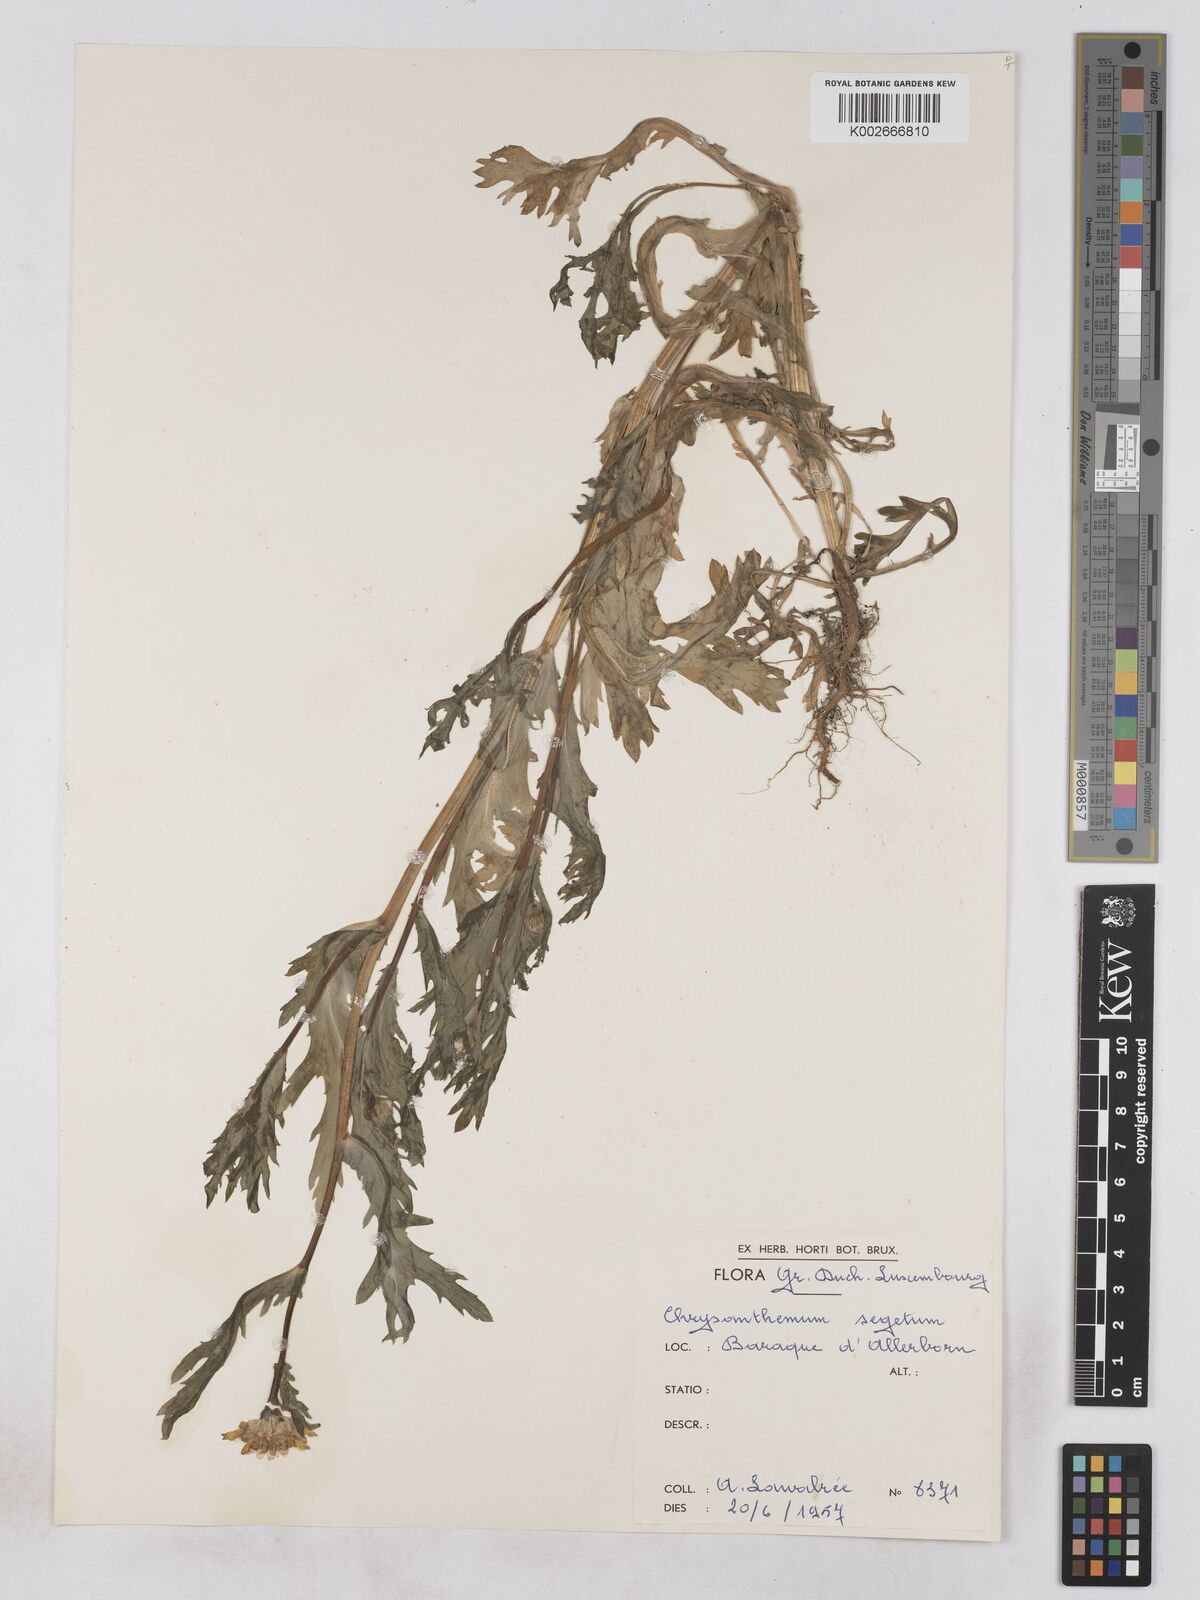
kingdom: Plantae
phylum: Tracheophyta
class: Magnoliopsida
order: Asterales
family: Asteraceae
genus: Glebionis
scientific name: Glebionis segetum
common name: Corndaisy
